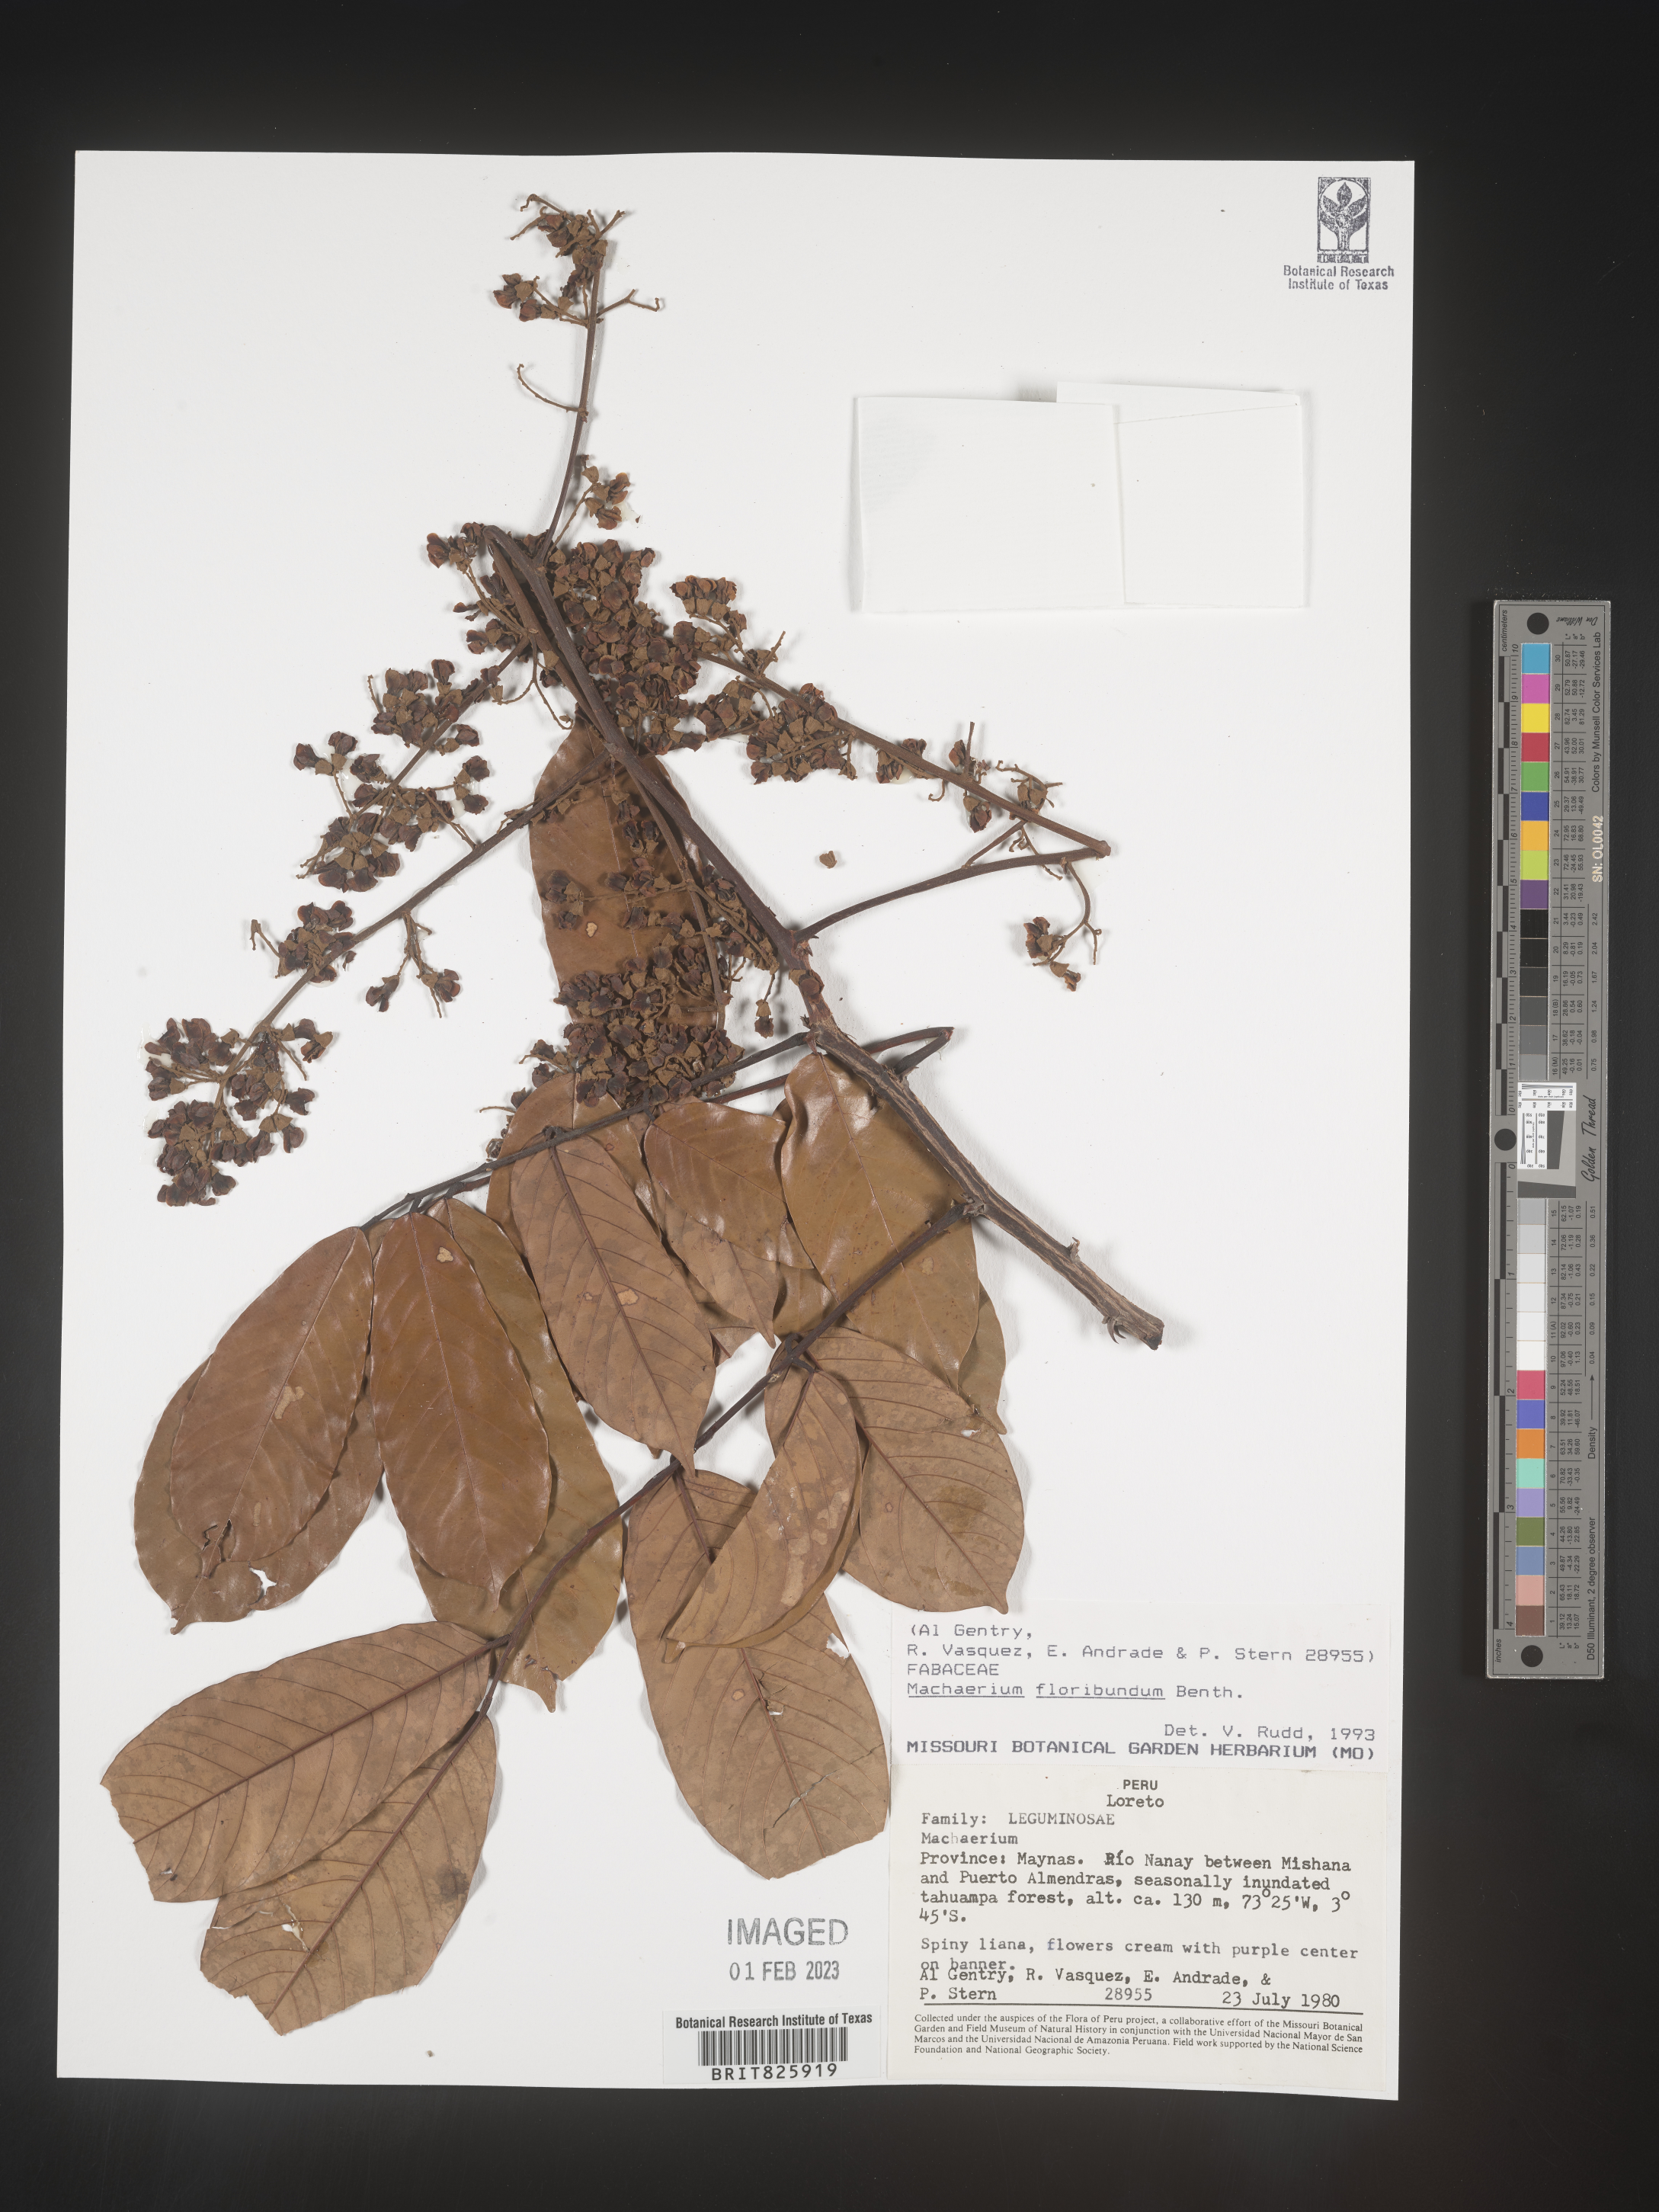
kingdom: Plantae
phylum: Tracheophyta
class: Magnoliopsida
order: Fabales
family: Fabaceae
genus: Machaerium
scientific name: Machaerium
